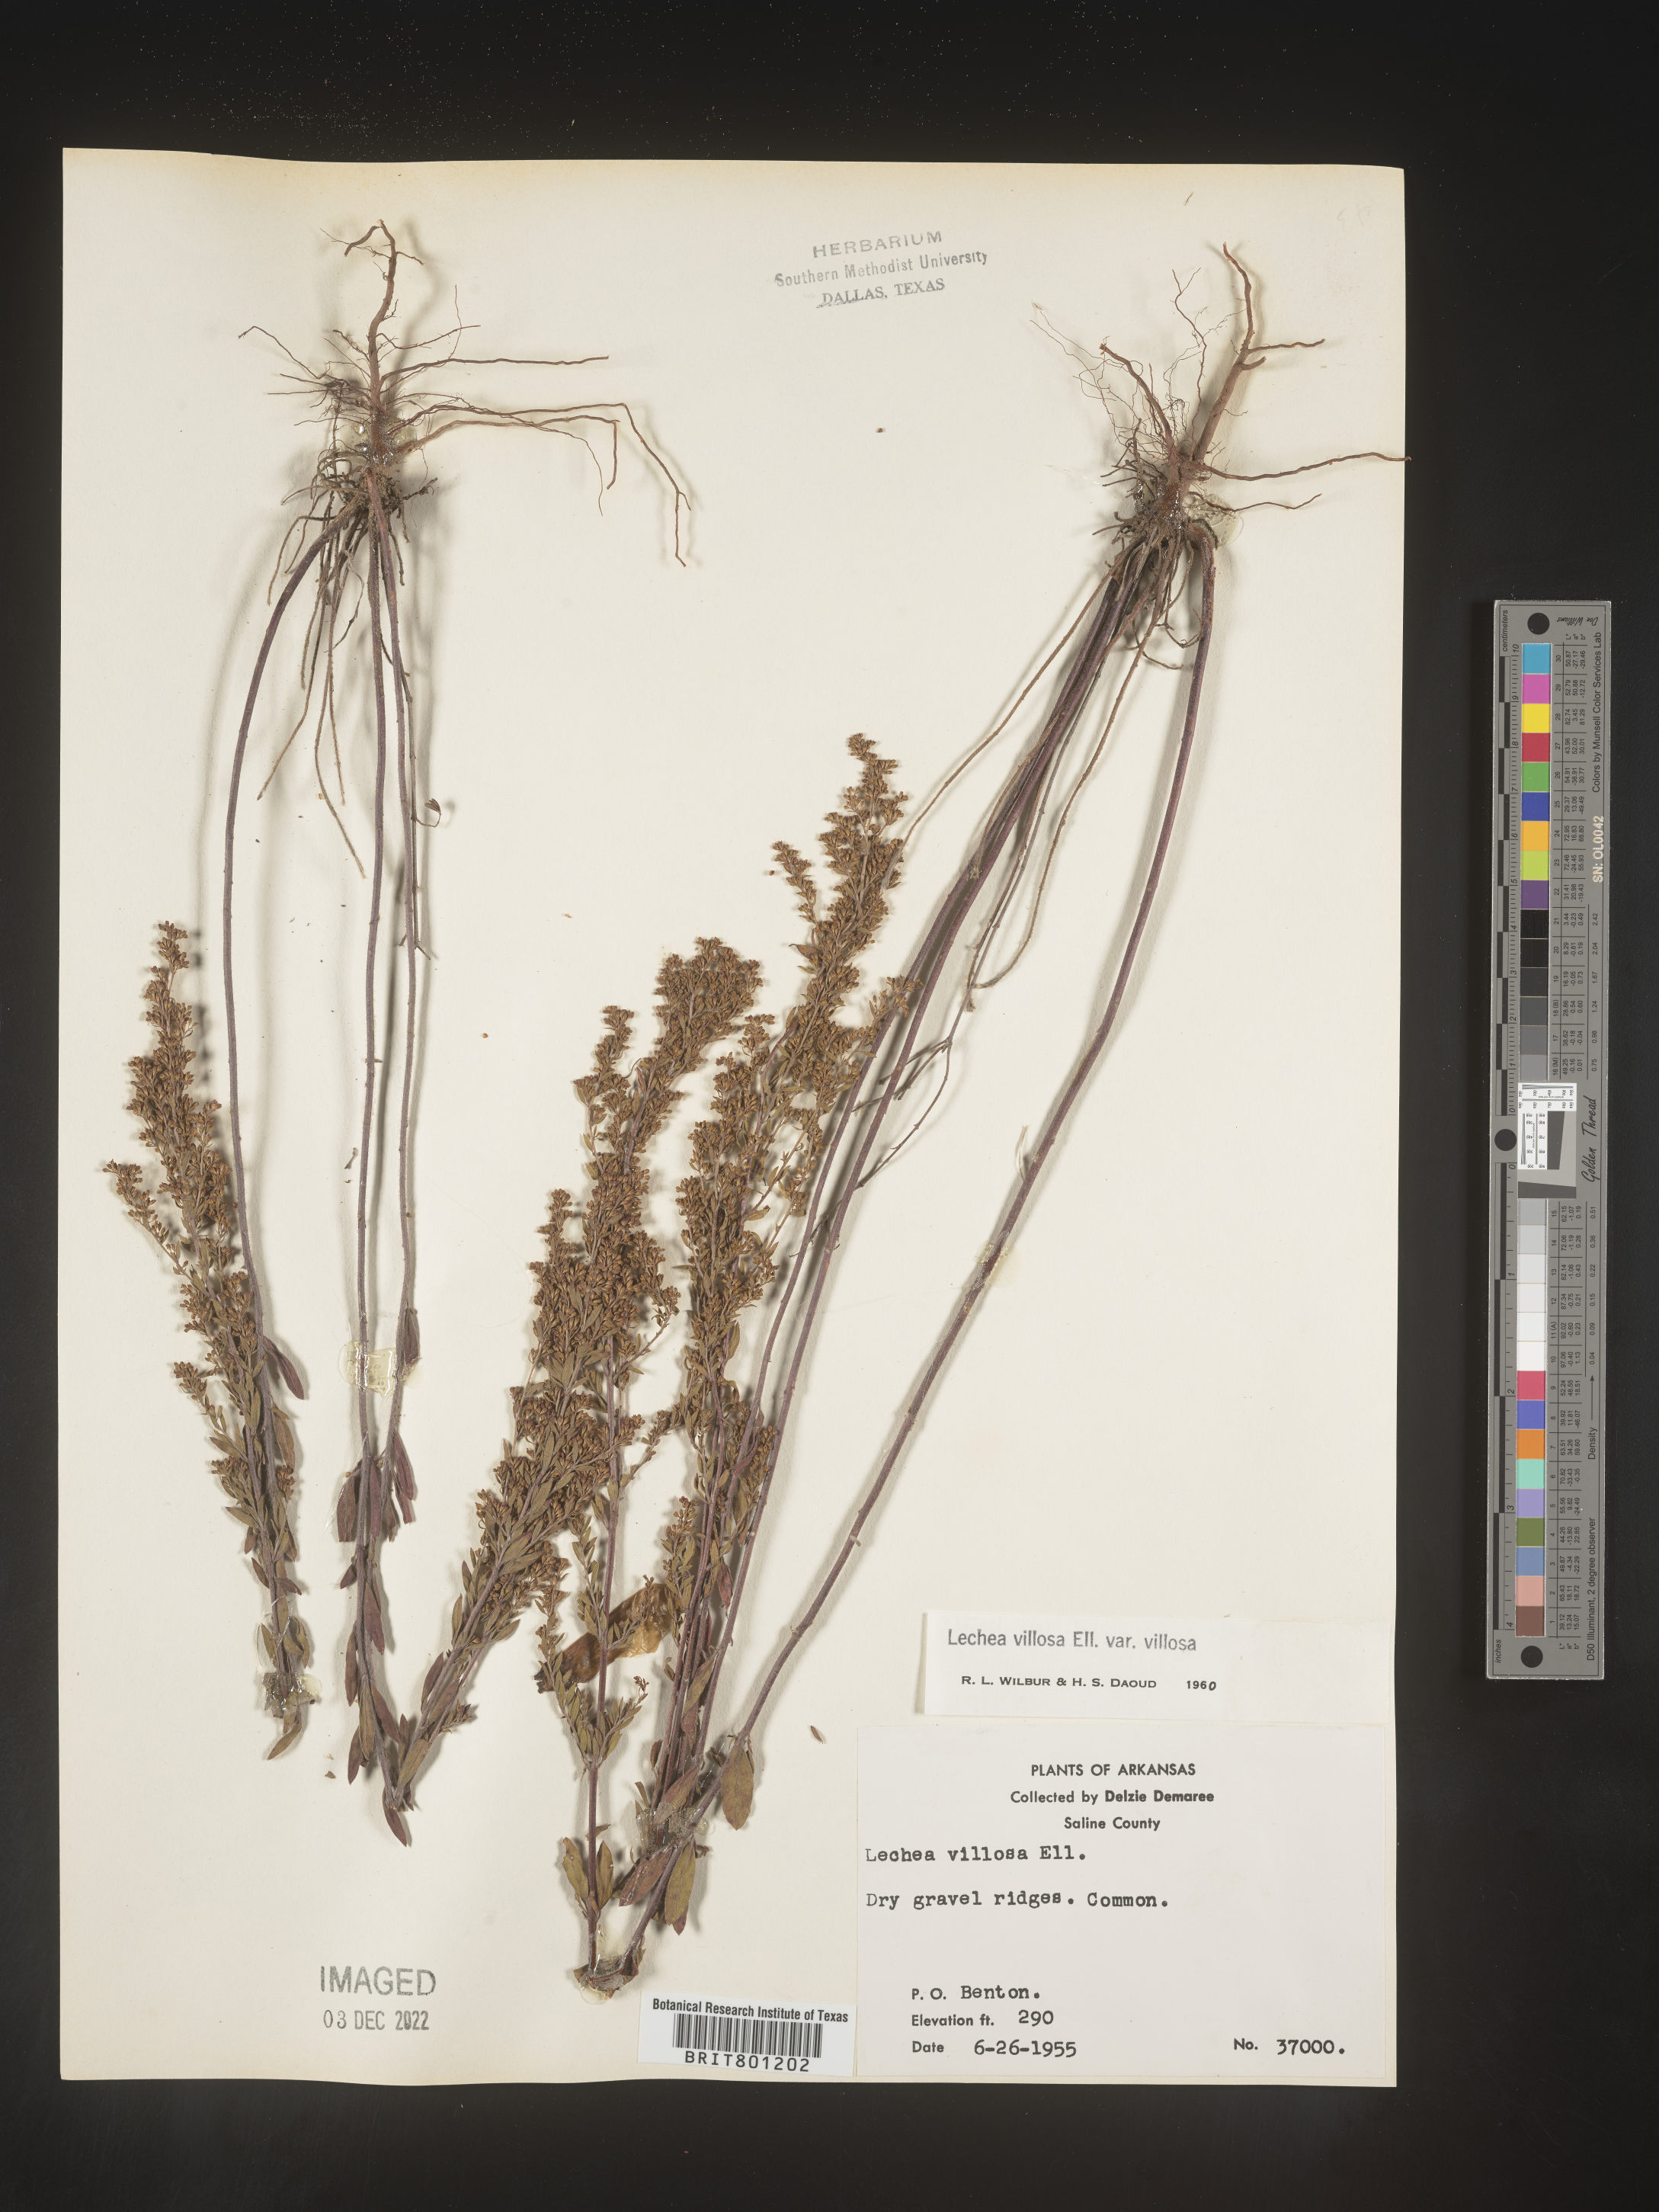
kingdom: Plantae
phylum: Tracheophyta
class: Magnoliopsida
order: Malvales
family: Cistaceae
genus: Lechea
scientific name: Lechea mucronata
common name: Hairy pinweed
